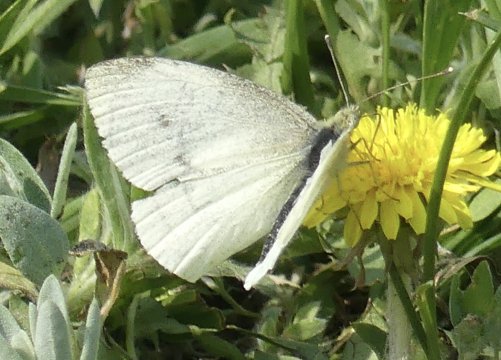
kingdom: Animalia
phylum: Arthropoda
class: Insecta
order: Lepidoptera
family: Pieridae
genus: Pieris
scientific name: Pieris rapae
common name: Cabbage White
